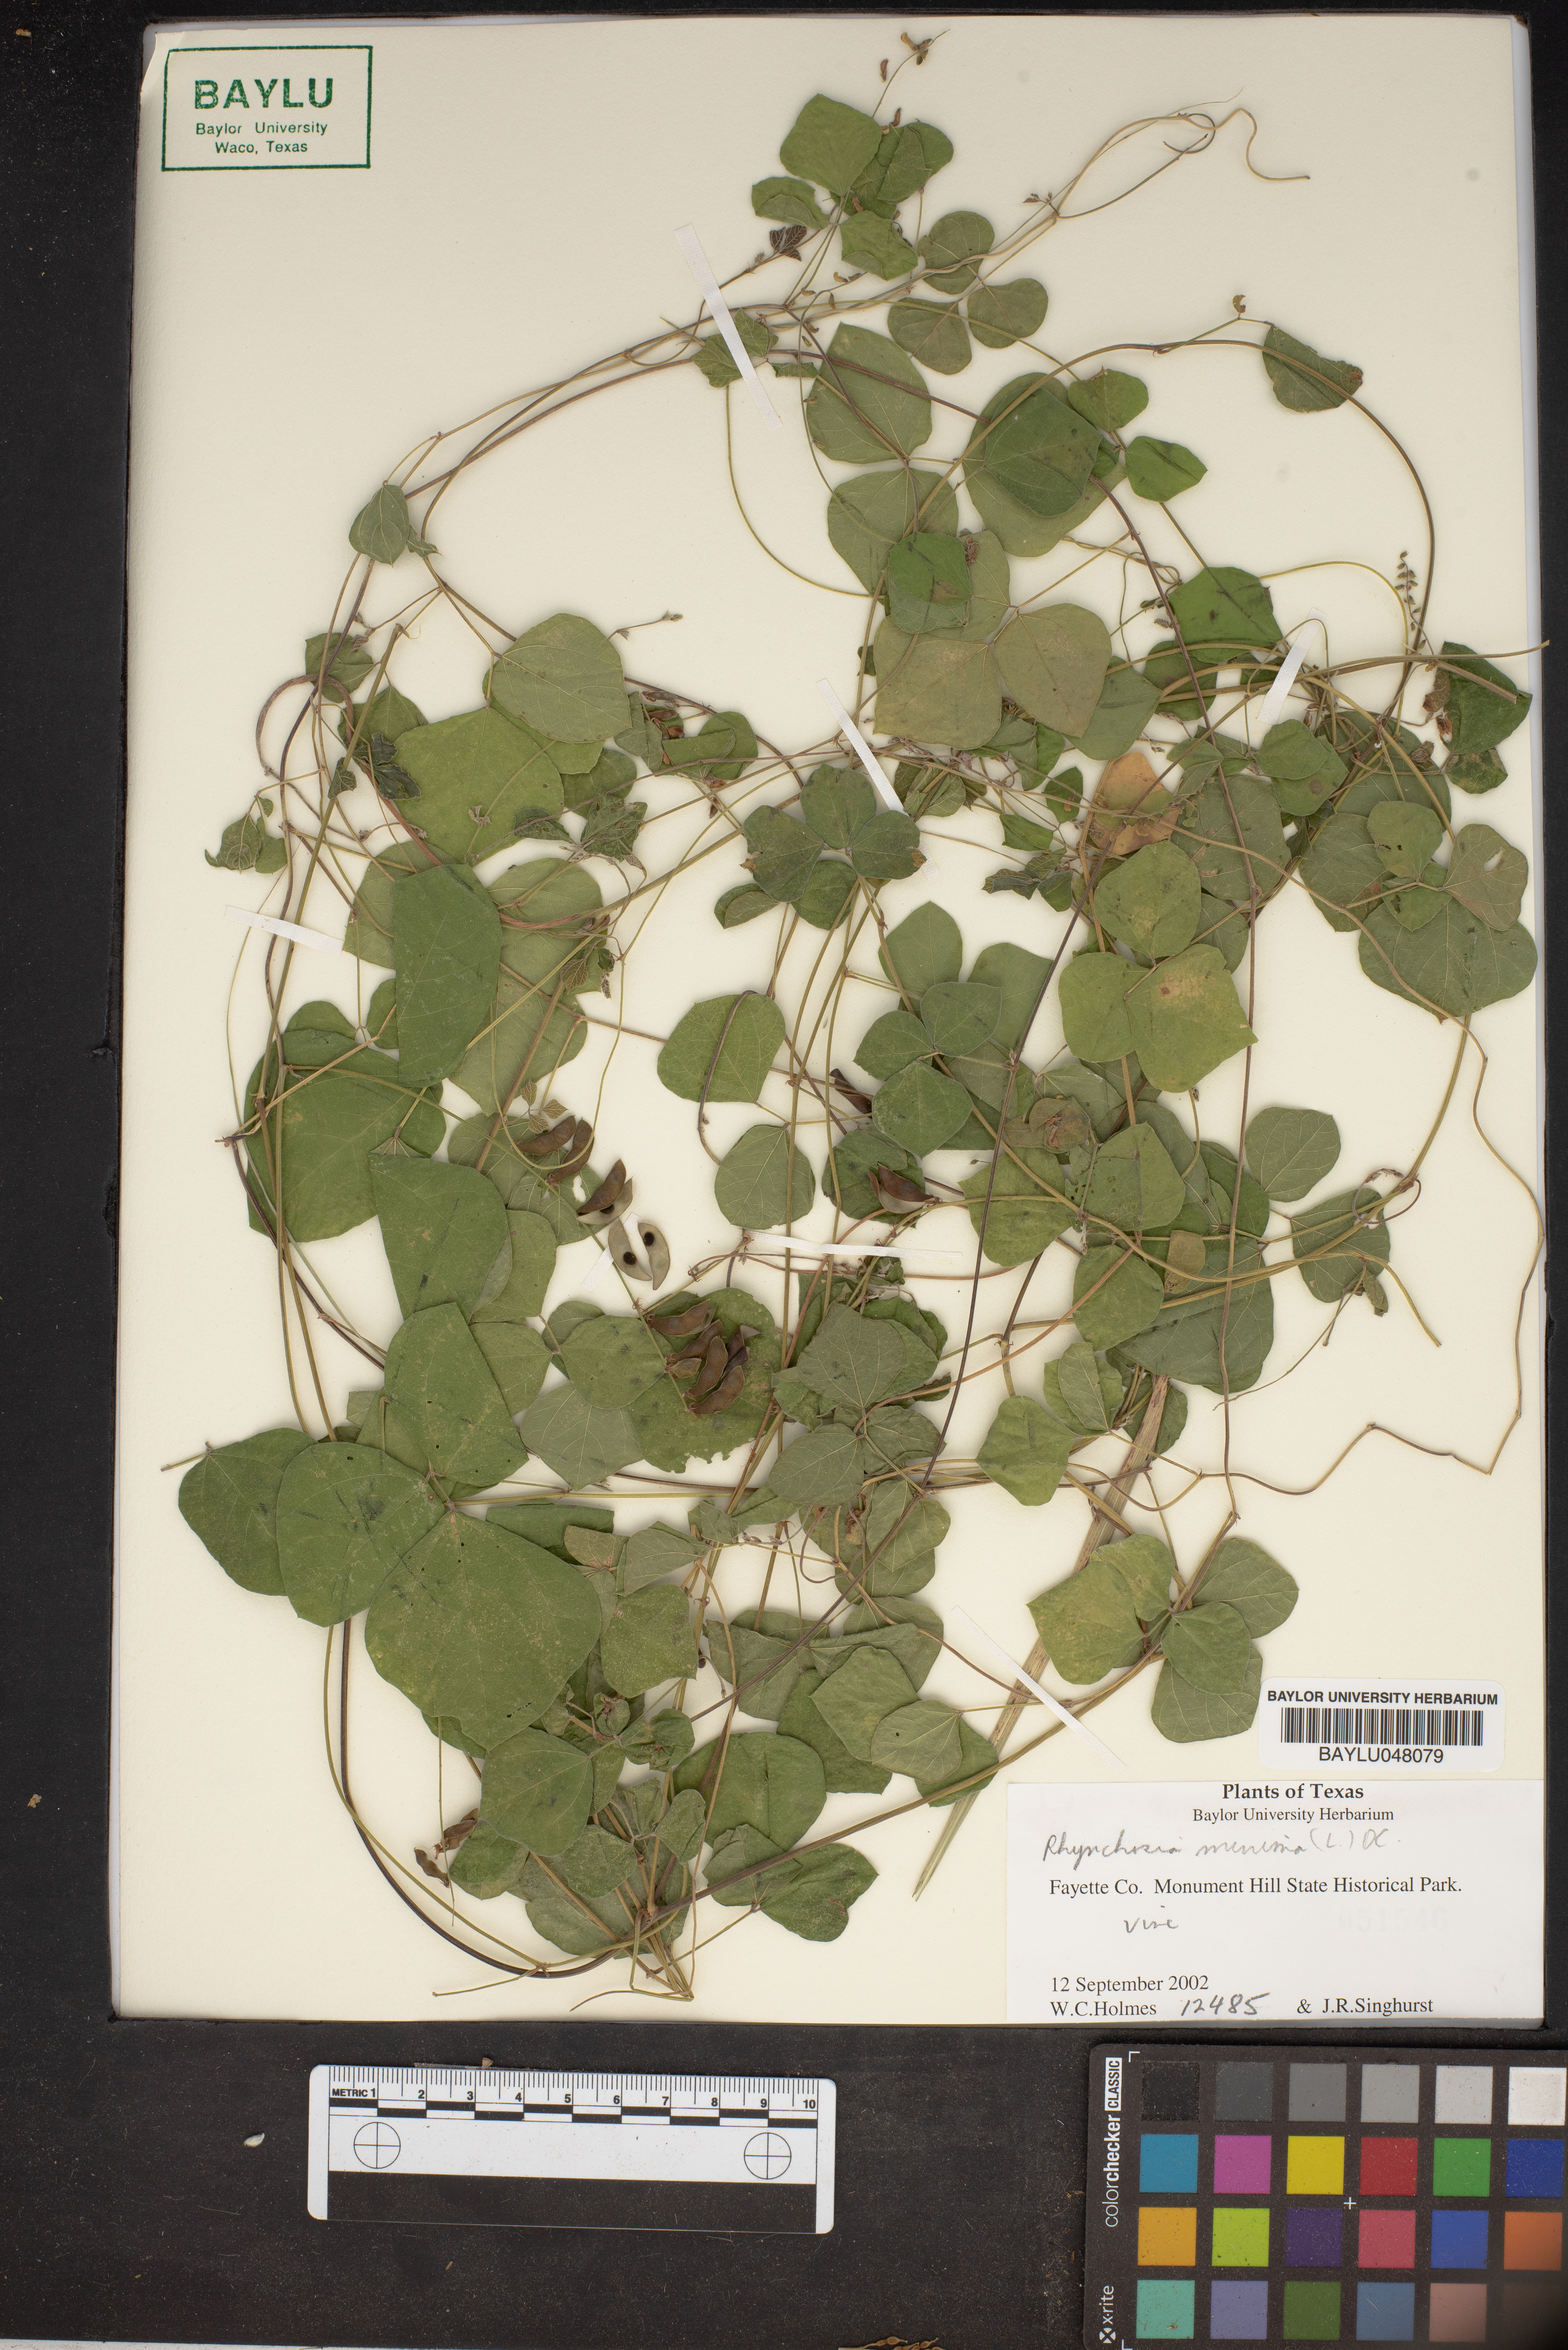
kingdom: Plantae
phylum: Tracheophyta
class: Magnoliopsida
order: Fabales
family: Fabaceae
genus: Rhynchosia
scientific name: Rhynchosia minima
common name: Least snoutbean
